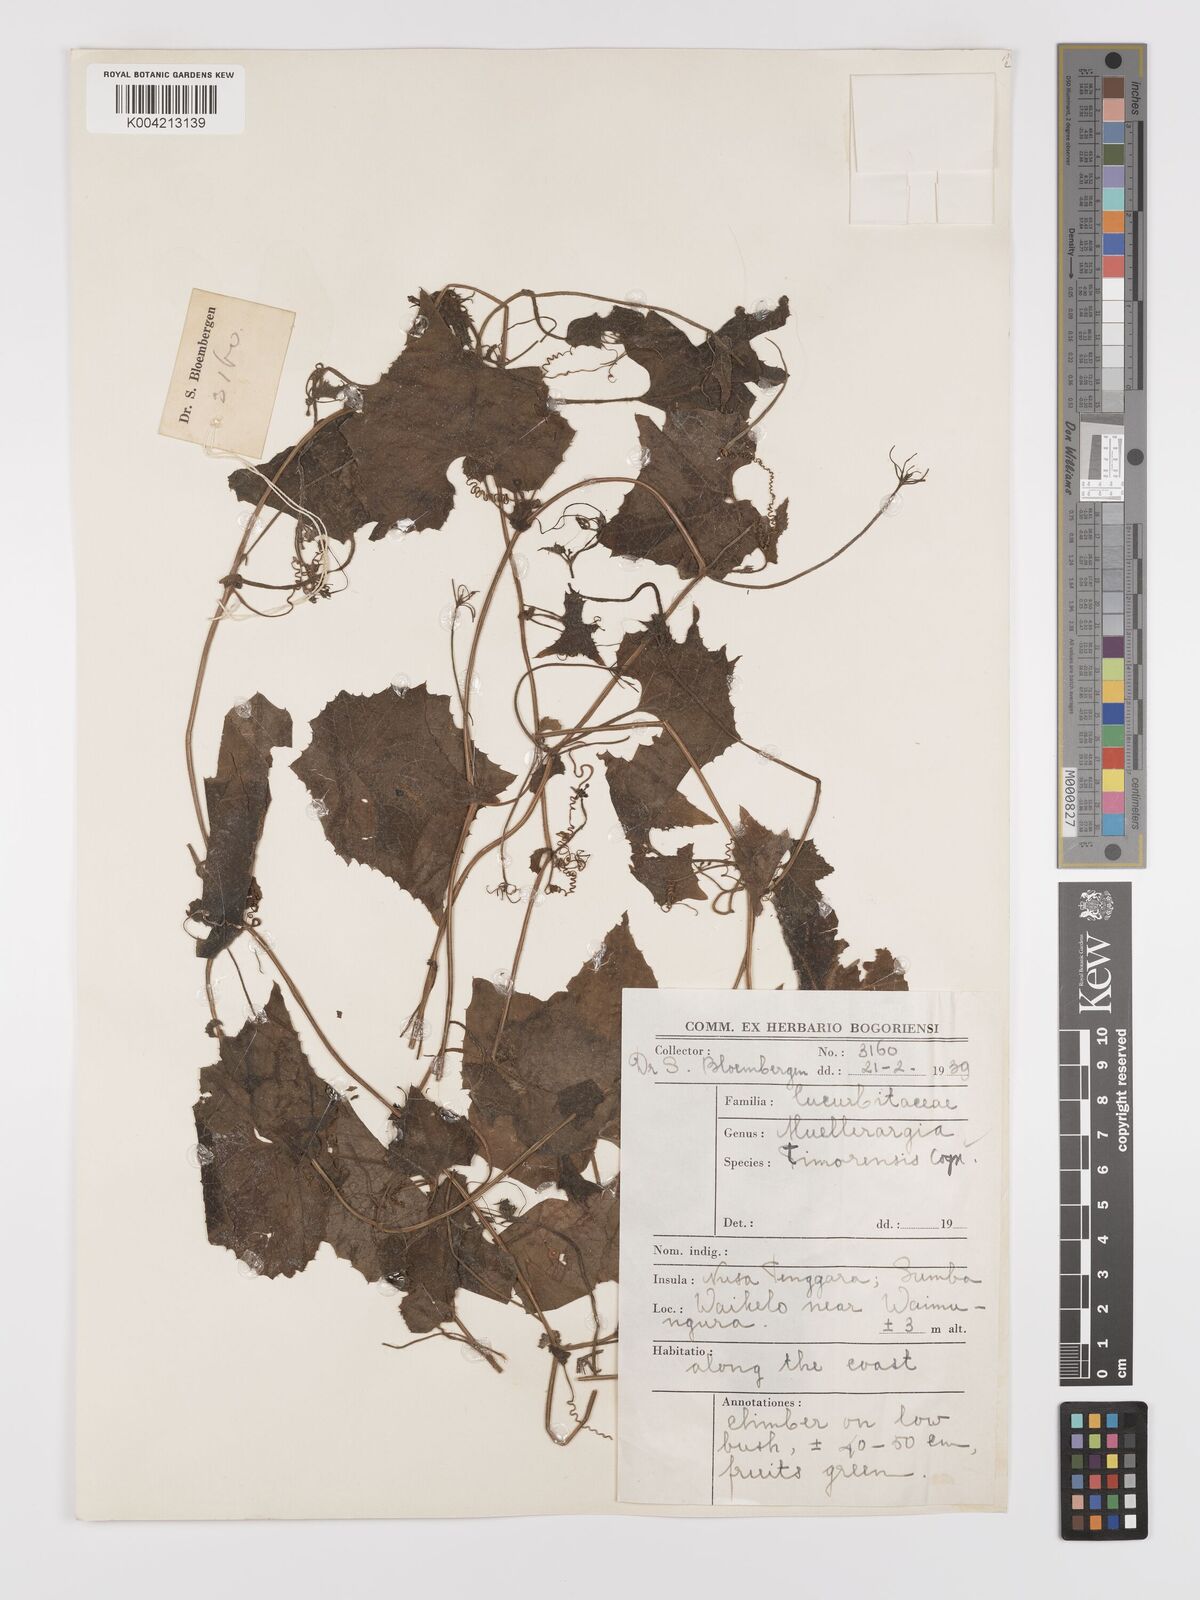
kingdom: Plantae
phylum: Tracheophyta
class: Magnoliopsida
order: Cucurbitales
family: Cucurbitaceae
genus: Muellerargia
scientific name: Muellerargia
